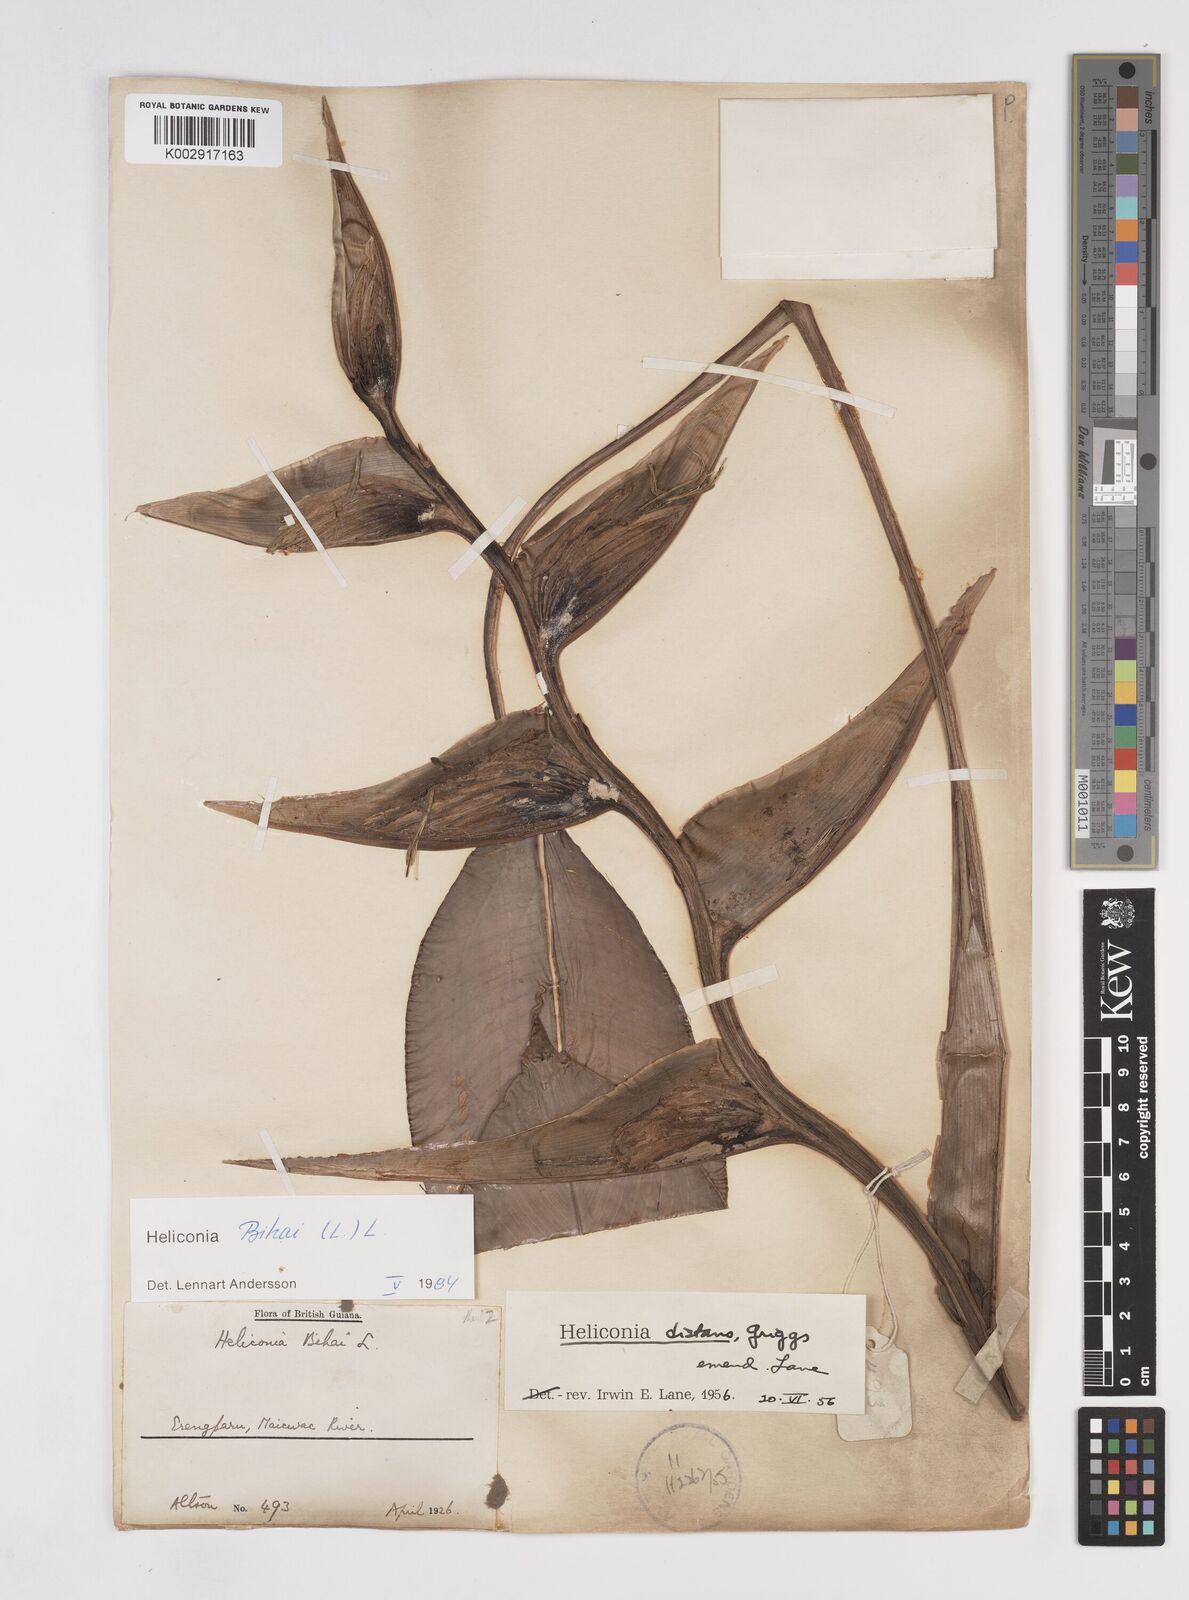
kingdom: Plantae
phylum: Tracheophyta
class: Liliopsida
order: Zingiberales
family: Heliconiaceae
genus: Heliconia
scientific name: Heliconia bihai
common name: Macaw flower
